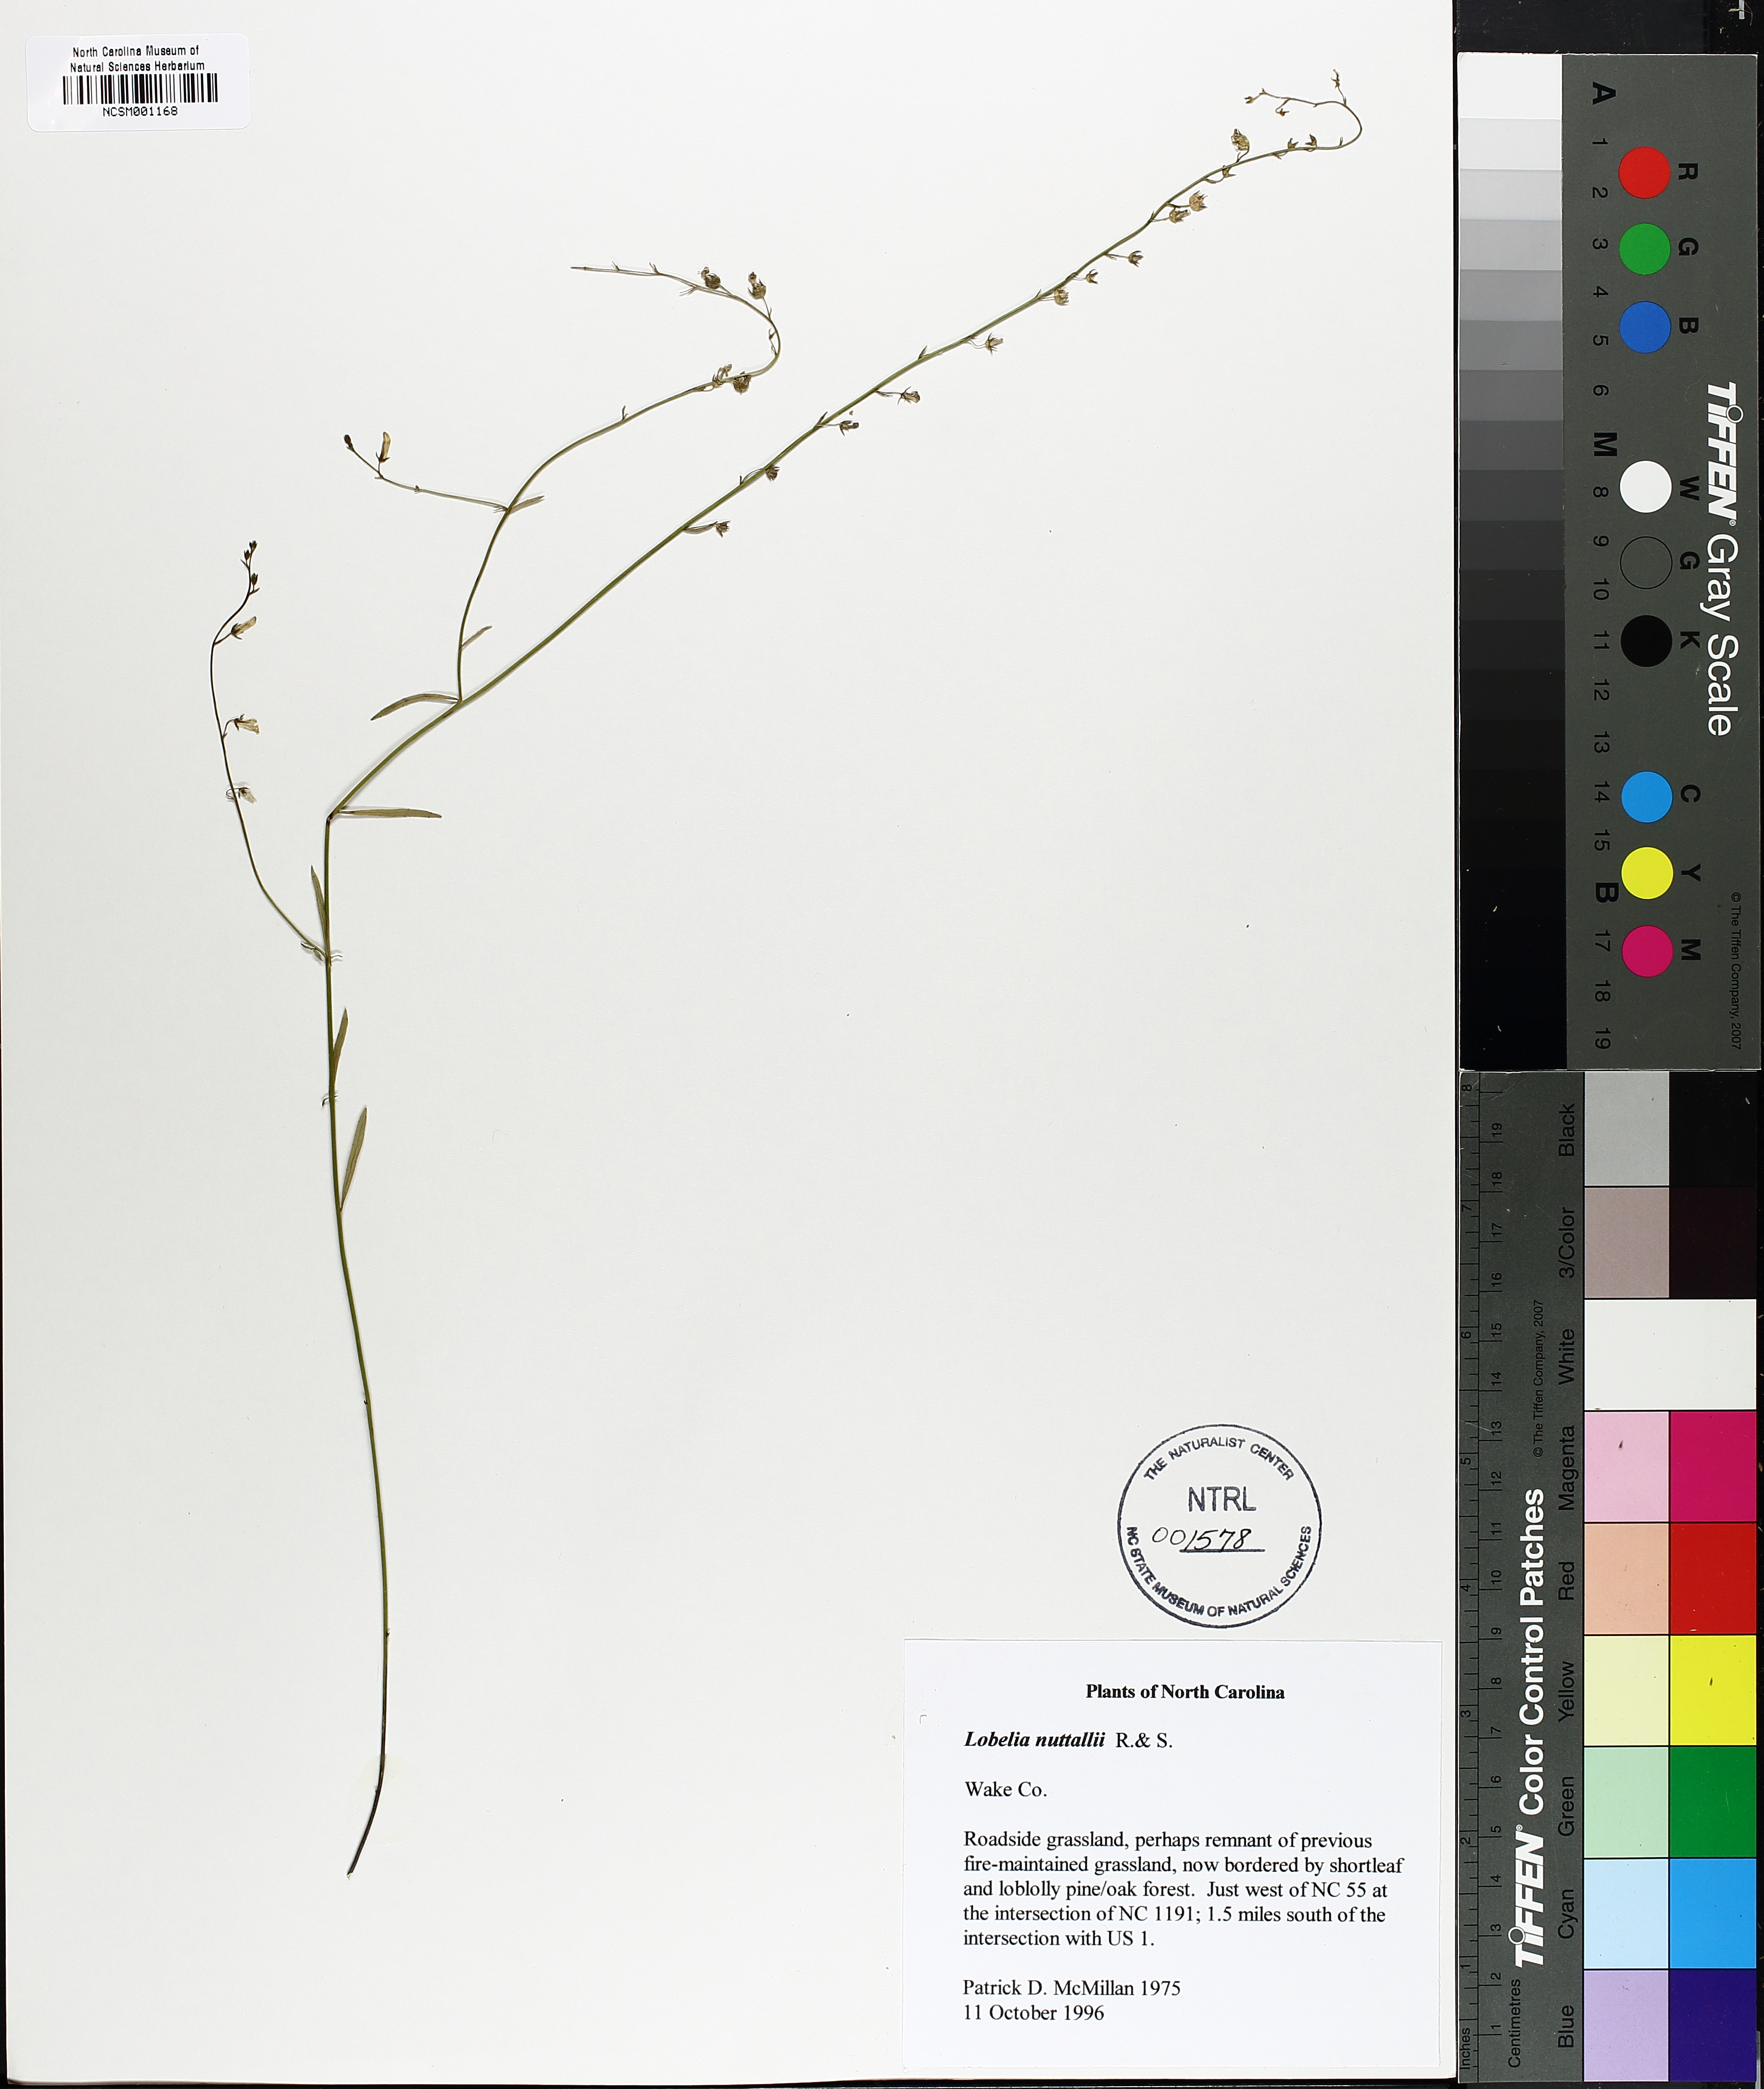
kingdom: Plantae
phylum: Tracheophyta
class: Magnoliopsida
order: Asterales
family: Campanulaceae
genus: Lobelia
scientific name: Lobelia nuttallii
